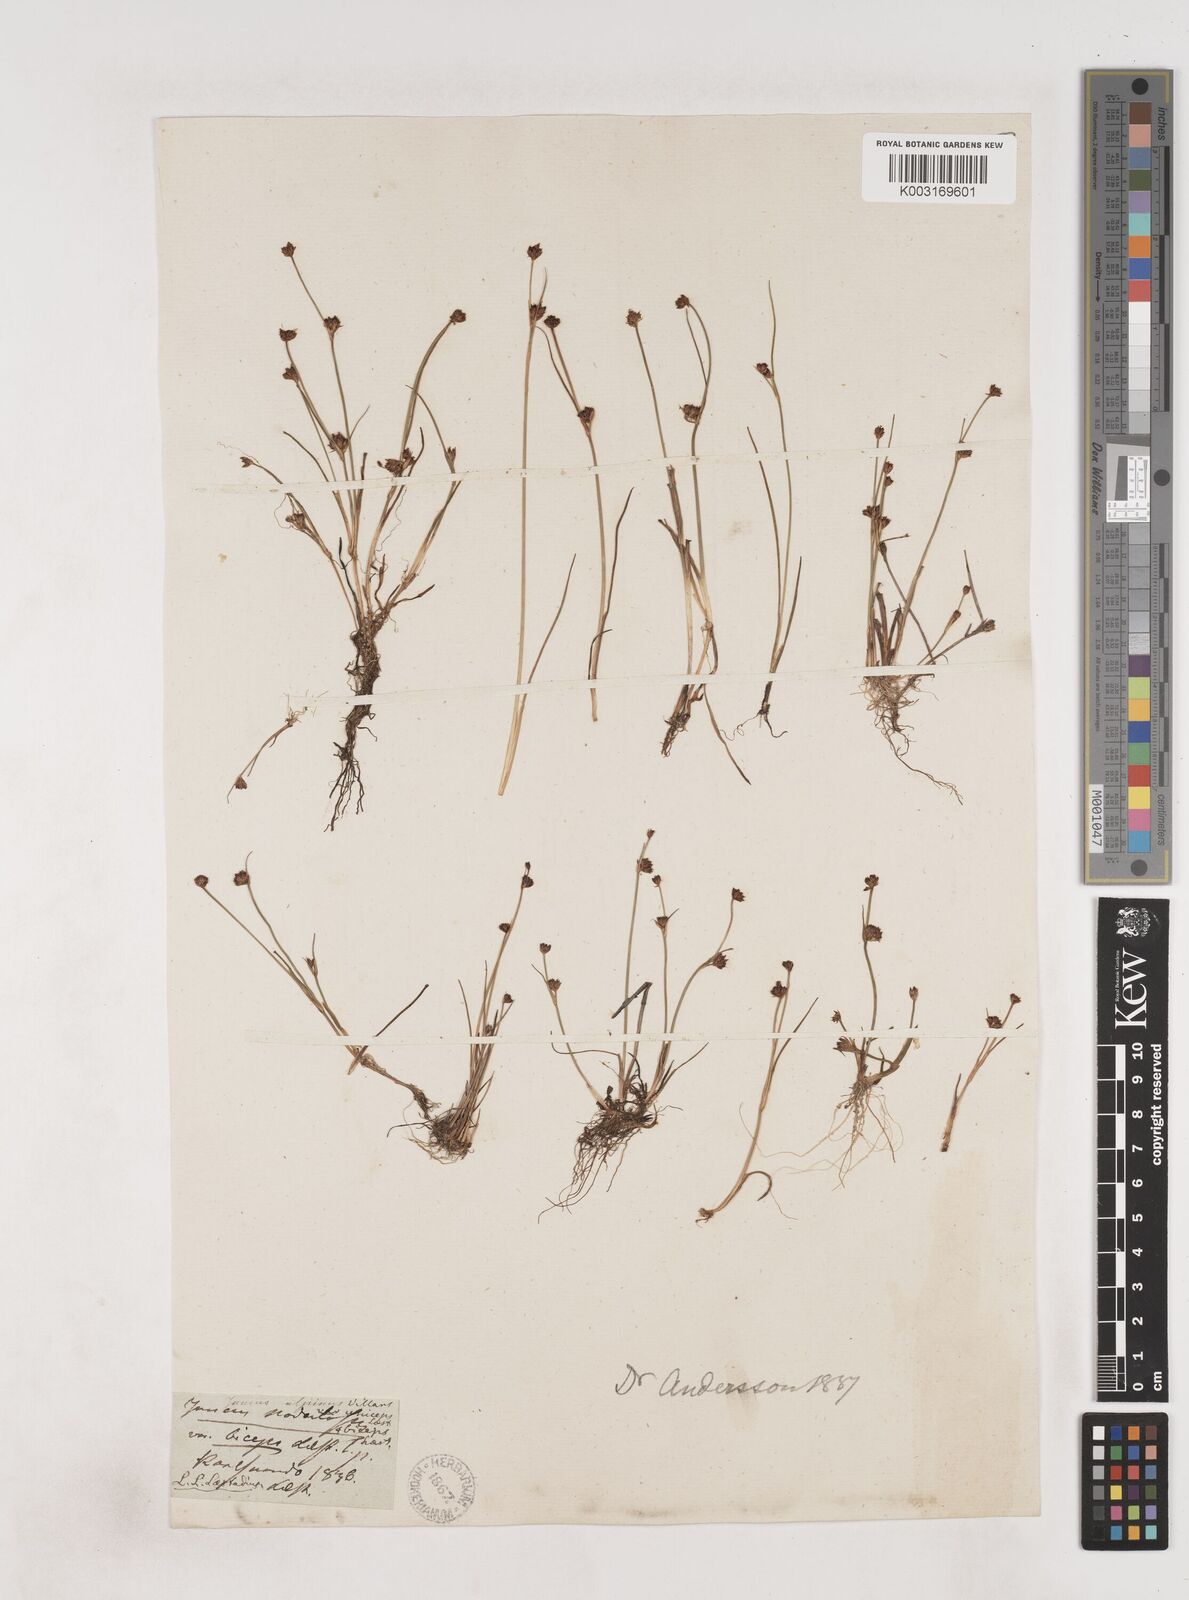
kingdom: Plantae
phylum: Tracheophyta
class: Liliopsida
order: Poales
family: Juncaceae
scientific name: Juncaceae
